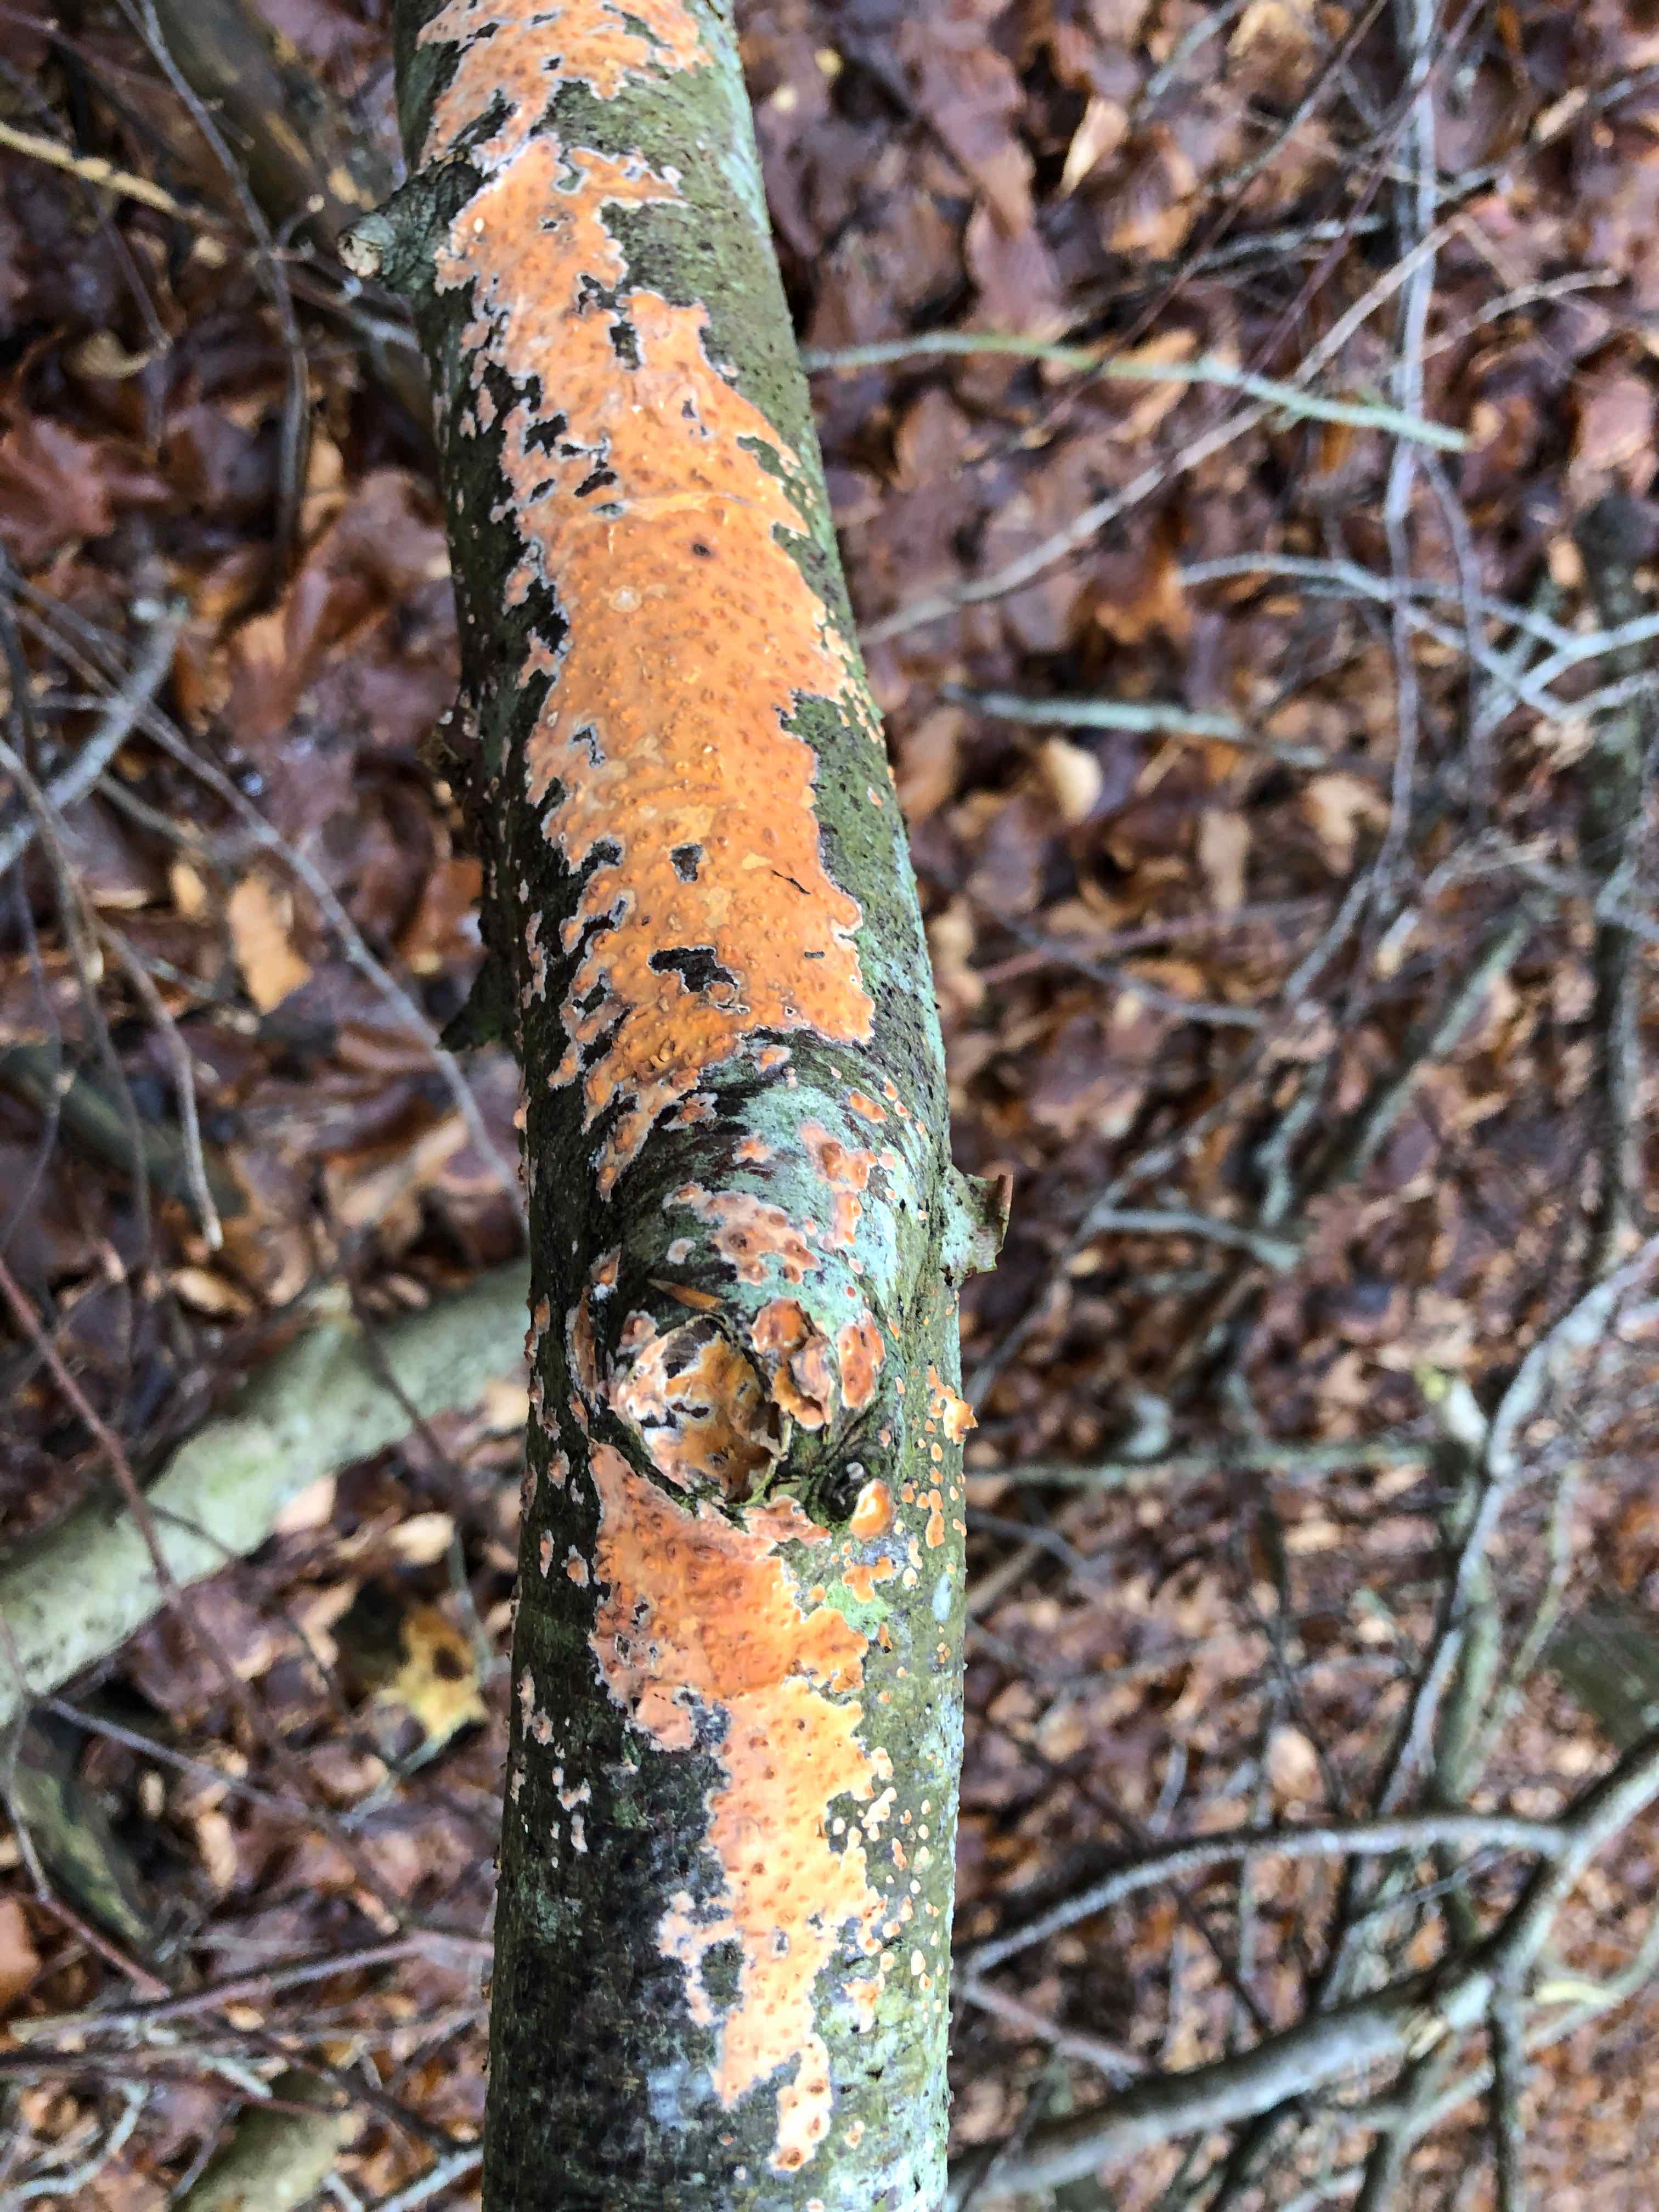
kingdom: Fungi
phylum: Basidiomycota
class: Agaricomycetes
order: Russulales
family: Peniophoraceae
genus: Peniophora
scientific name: Peniophora incarnata
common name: laksefarvet voksskind
